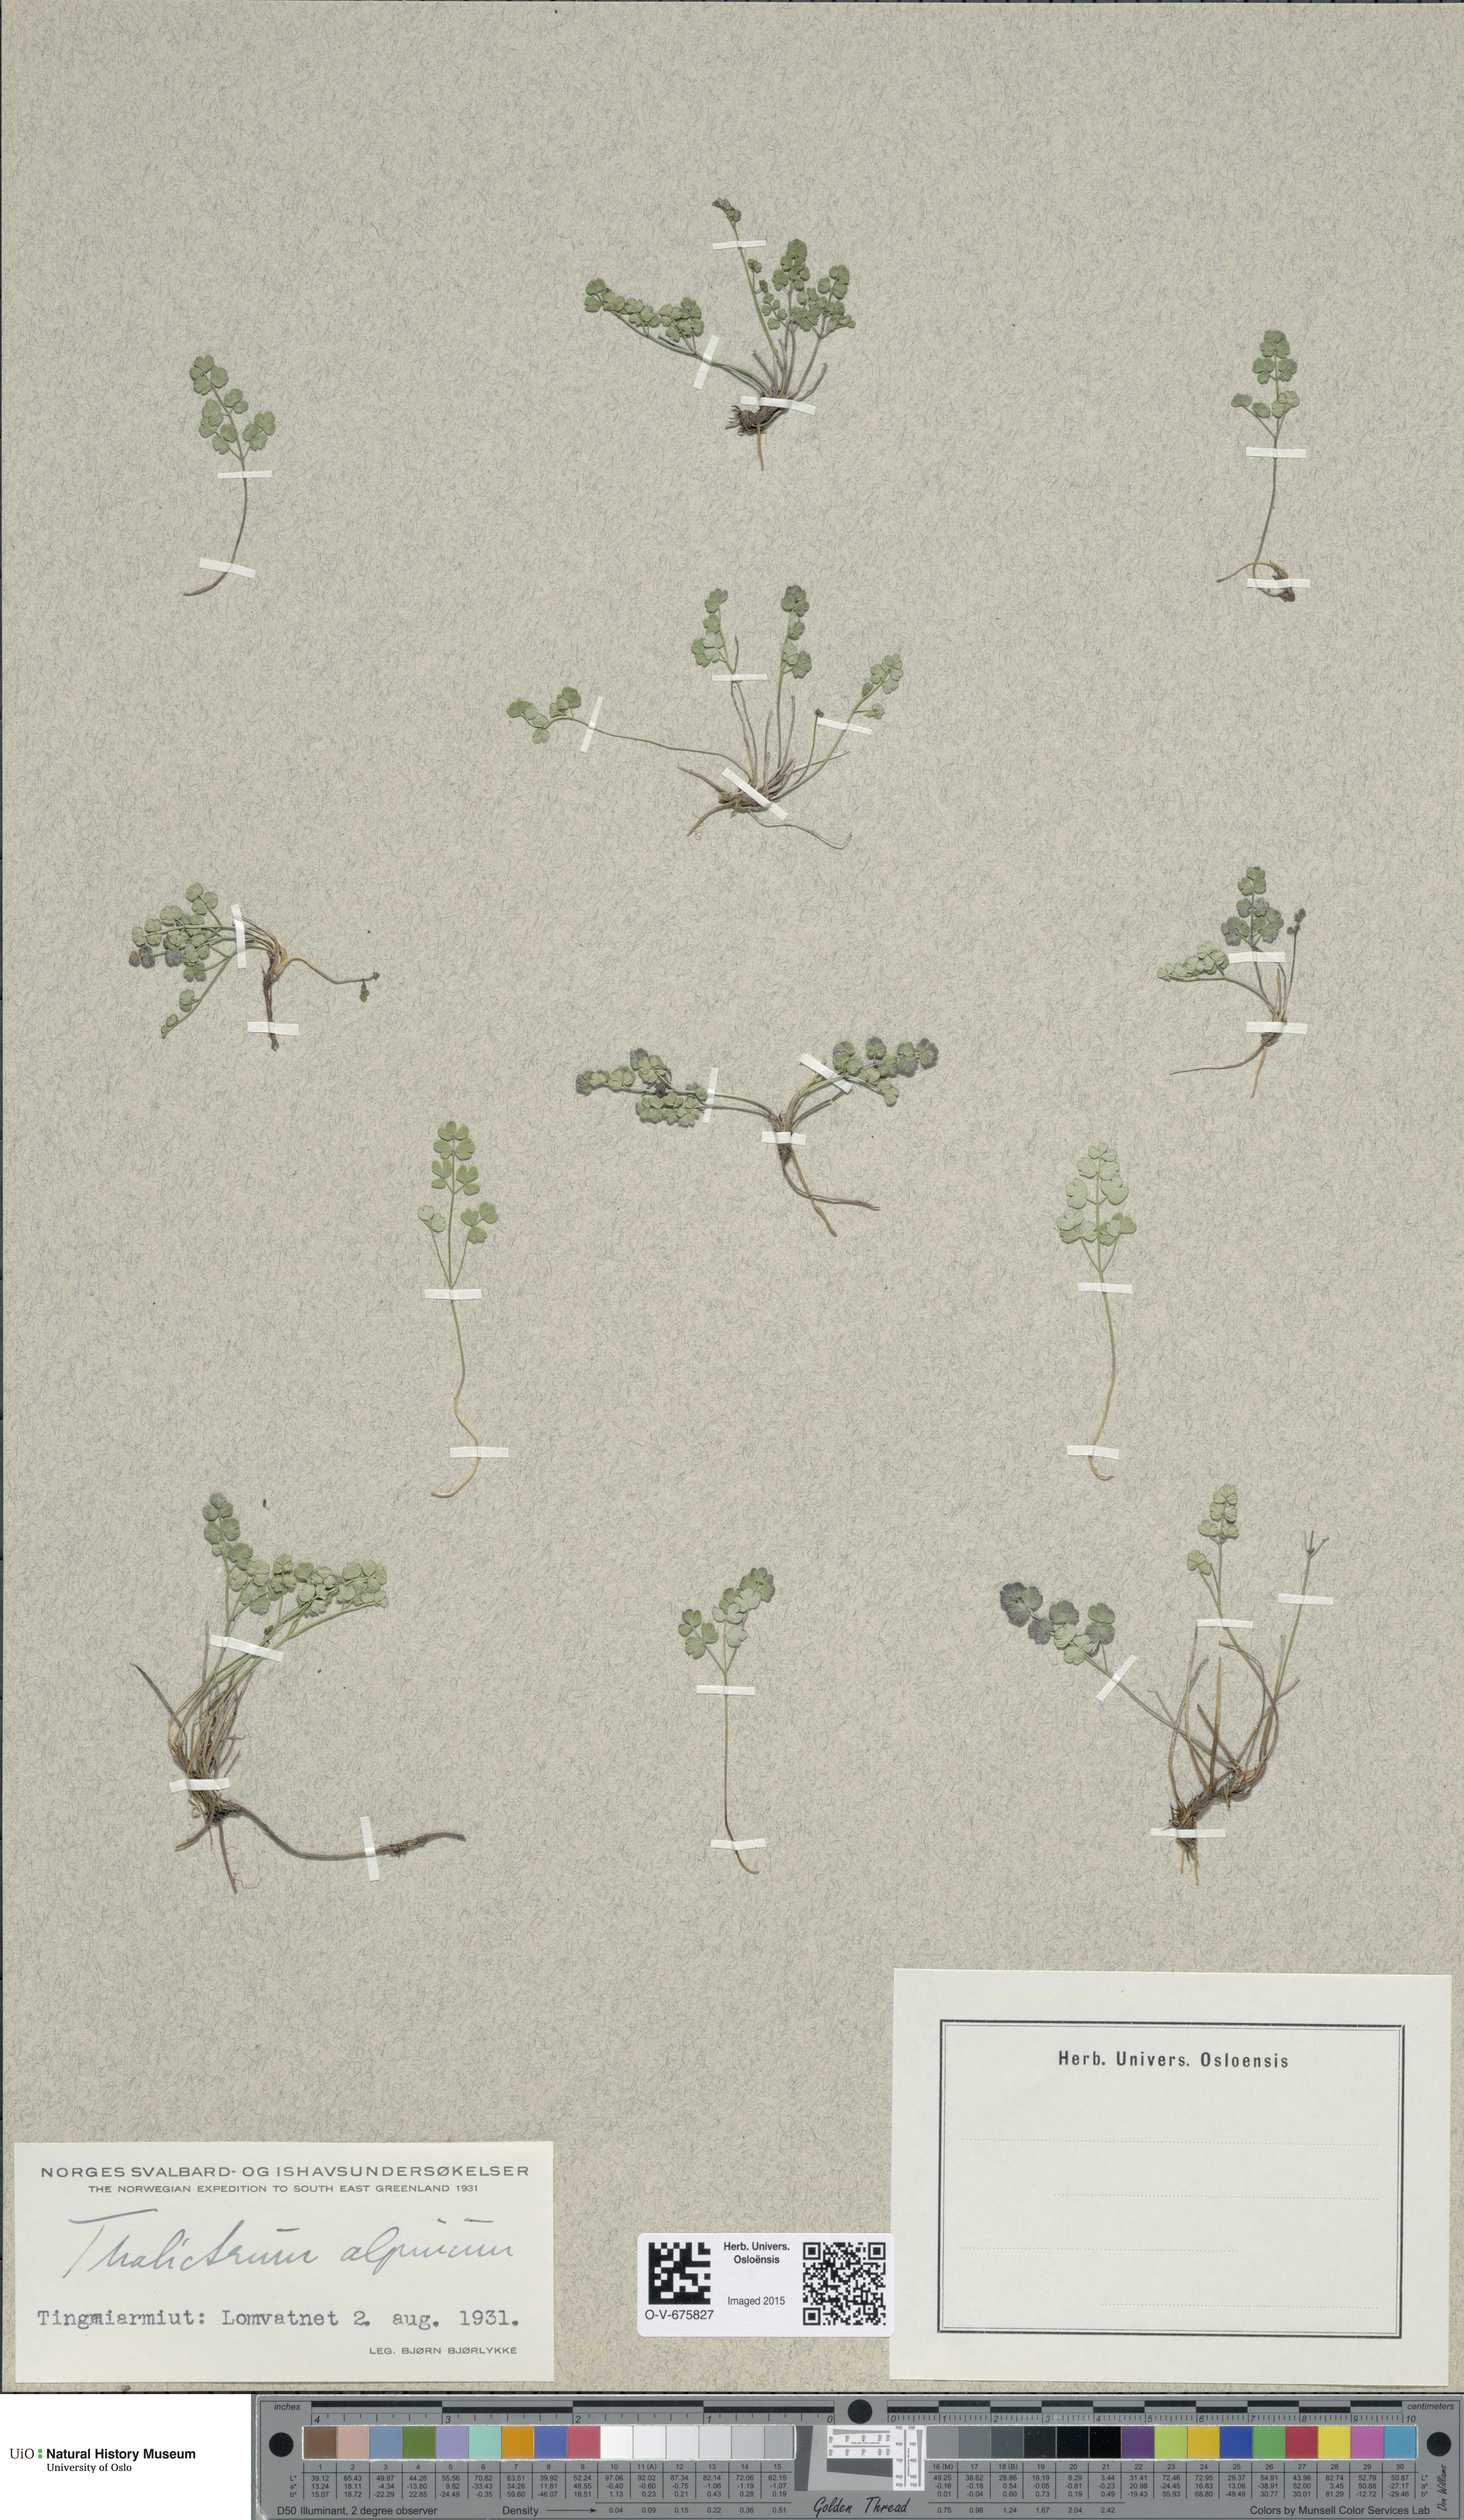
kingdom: Plantae
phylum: Tracheophyta
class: Magnoliopsida
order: Ranunculales
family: Ranunculaceae
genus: Thalictrum
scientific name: Thalictrum alpinum
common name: Alpine meadow-rue
